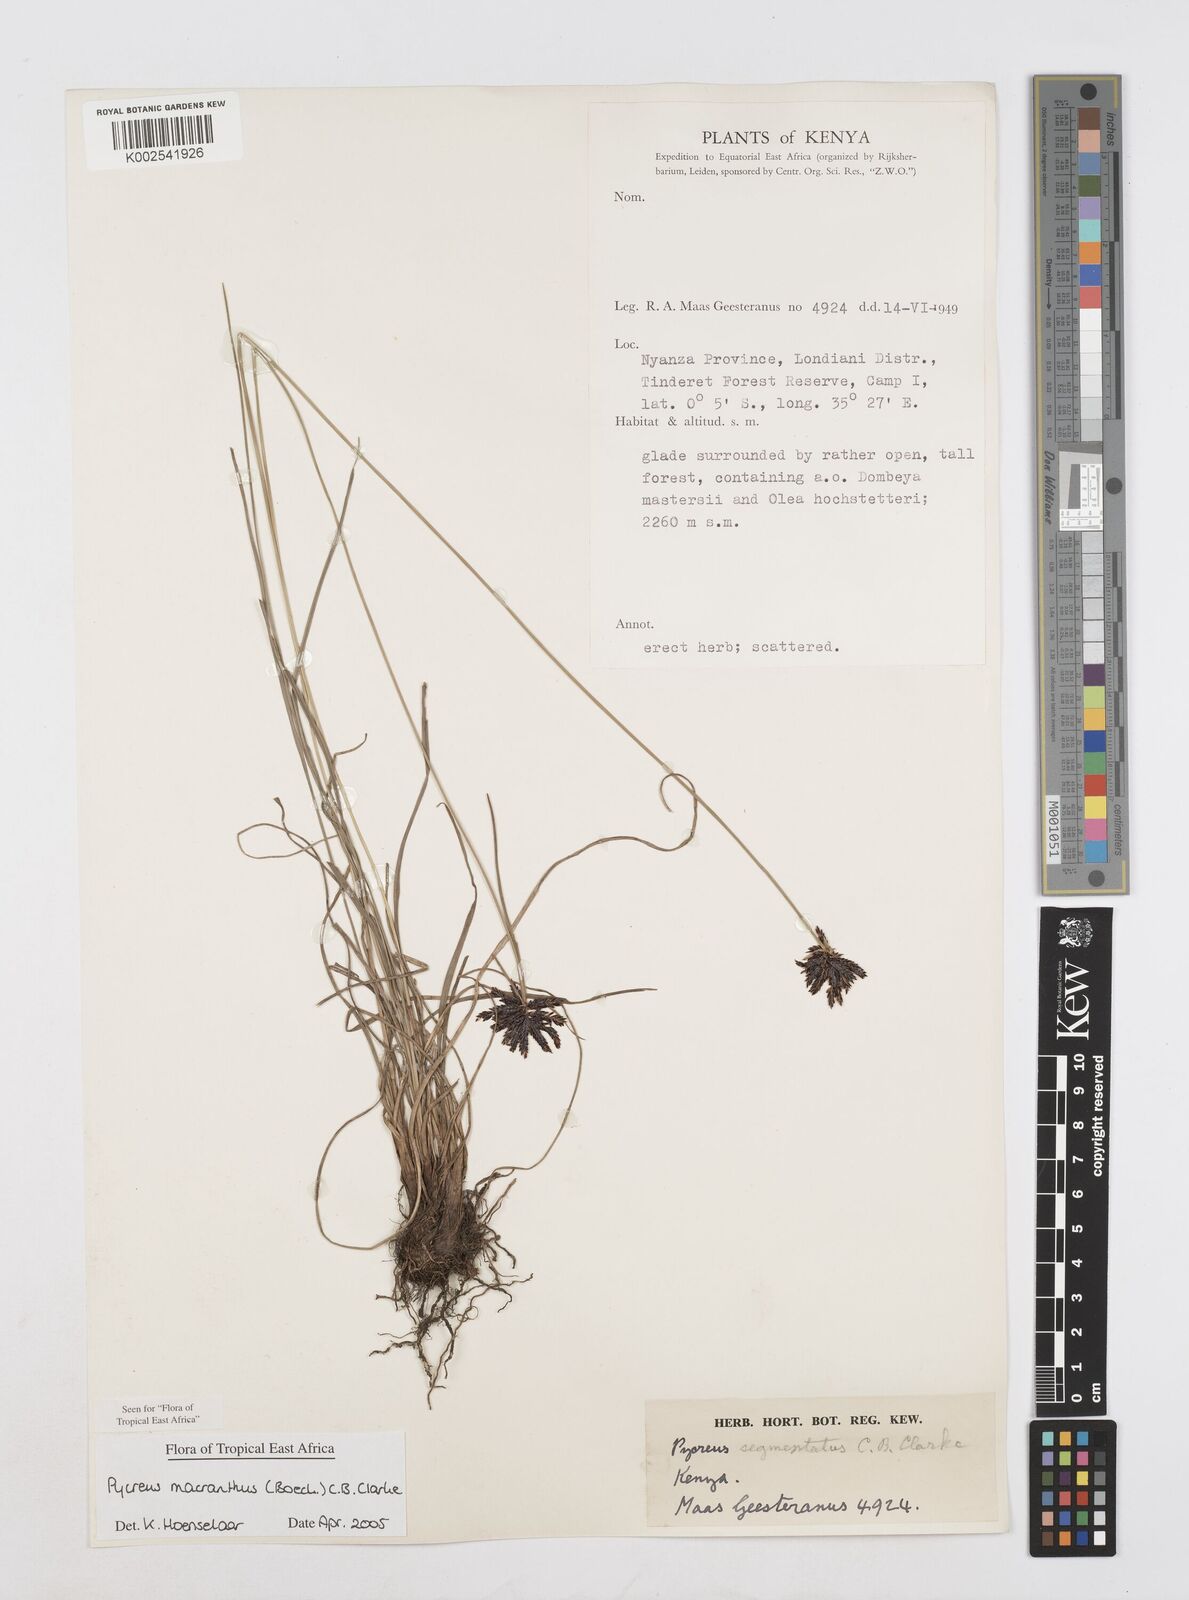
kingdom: Plantae
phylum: Tracheophyta
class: Liliopsida
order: Poales
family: Cyperaceae
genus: Cyperus
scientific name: Cyperus nigricans
